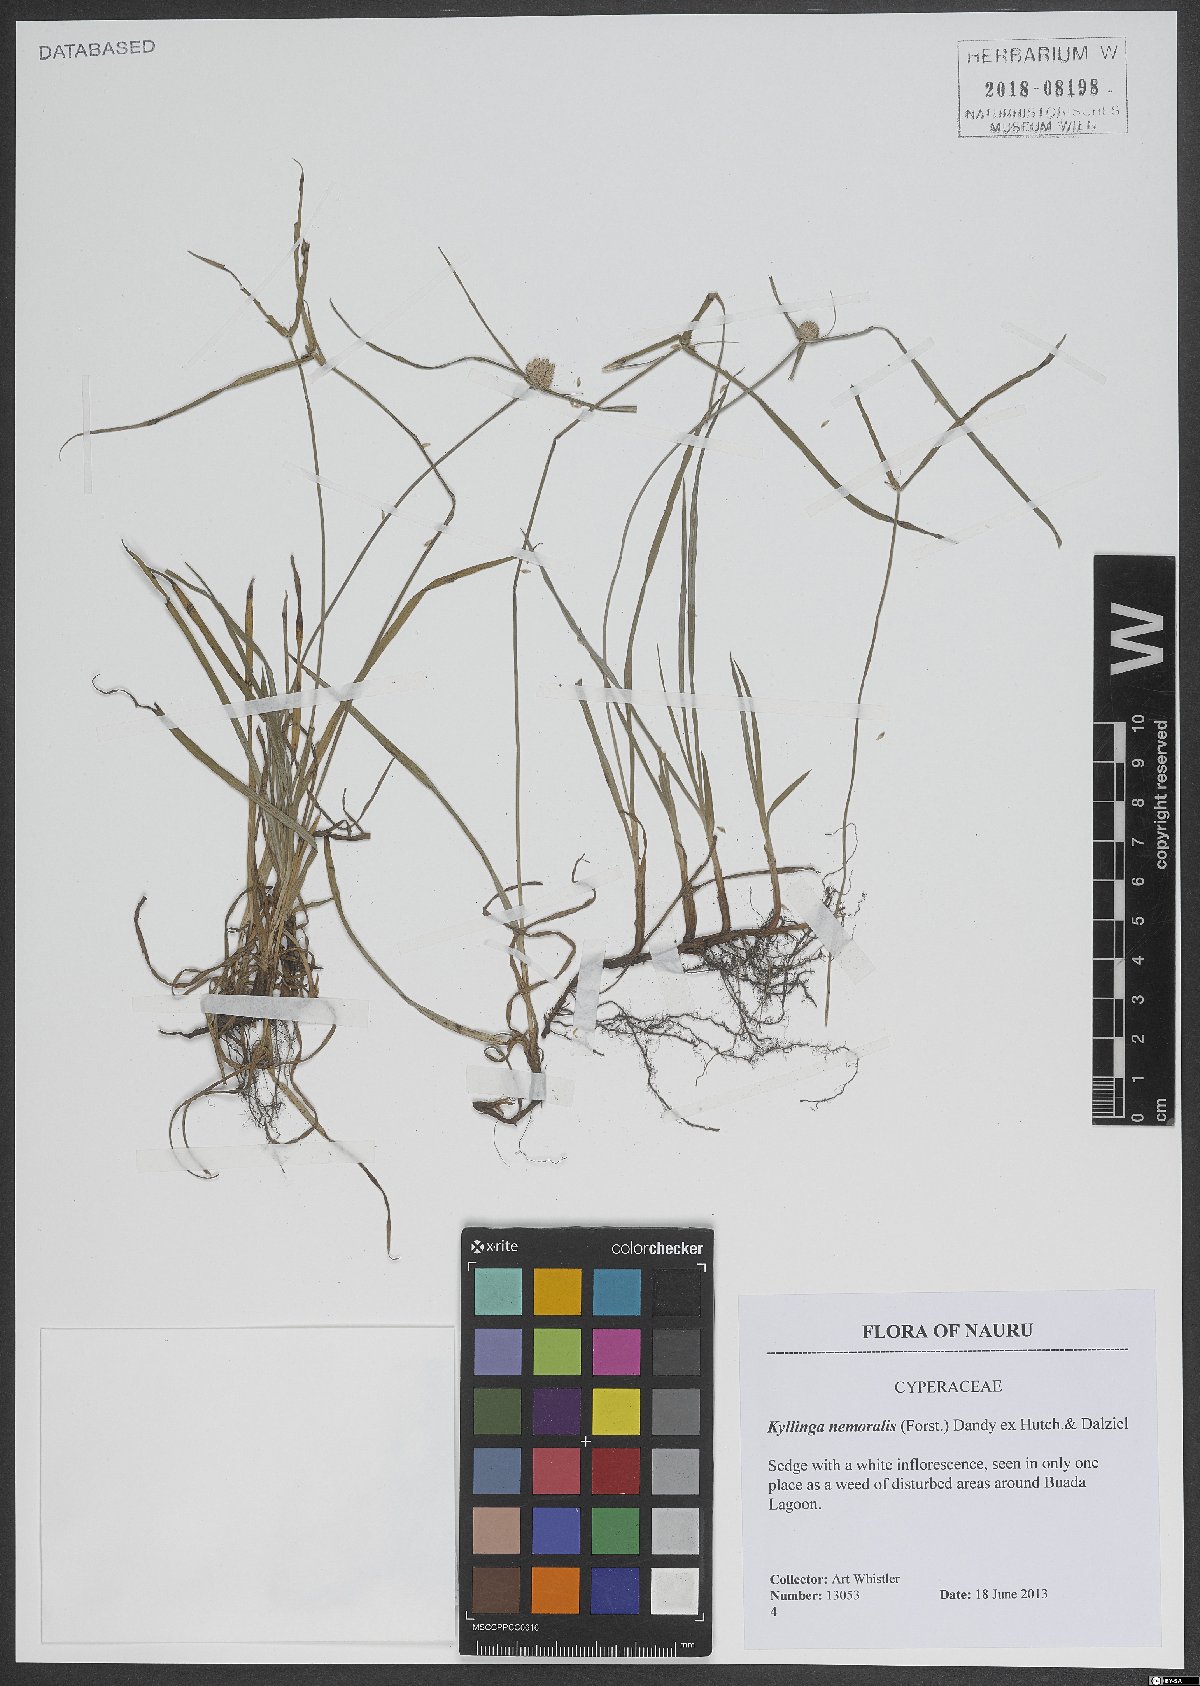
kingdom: Plantae
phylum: Tracheophyta
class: Liliopsida
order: Poales
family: Cyperaceae
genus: Cyperus
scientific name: Cyperus mindorensis
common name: Flatsedge
